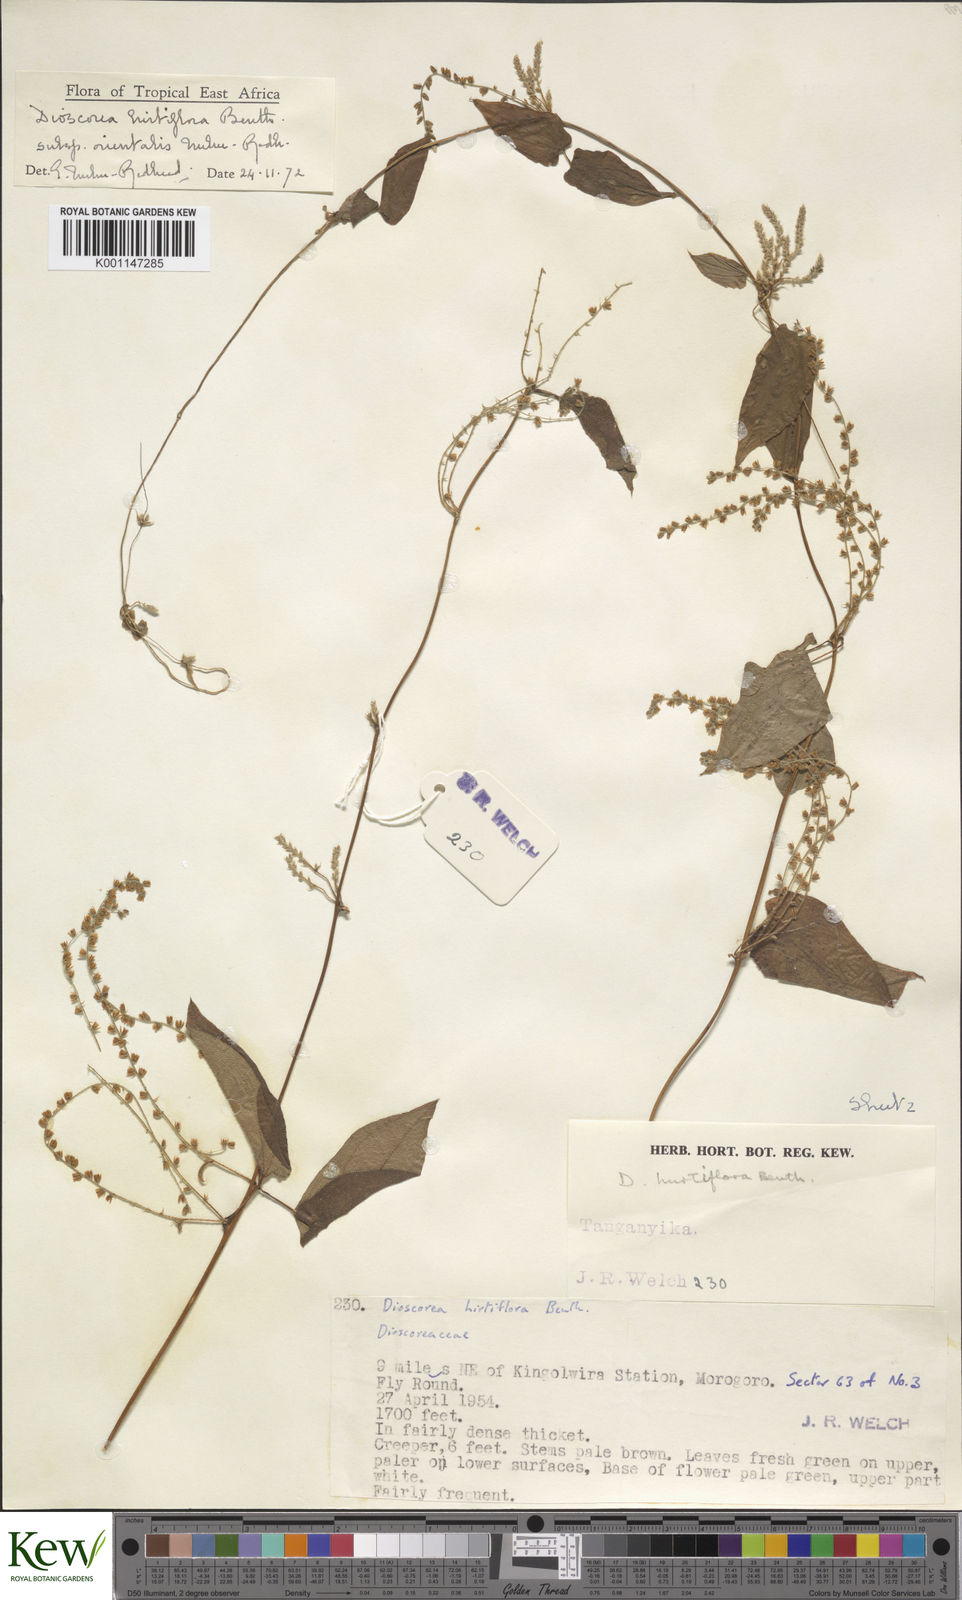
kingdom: Plantae
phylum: Tracheophyta
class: Liliopsida
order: Dioscoreales
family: Dioscoreaceae
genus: Dioscorea
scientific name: Dioscorea hirtiflora
